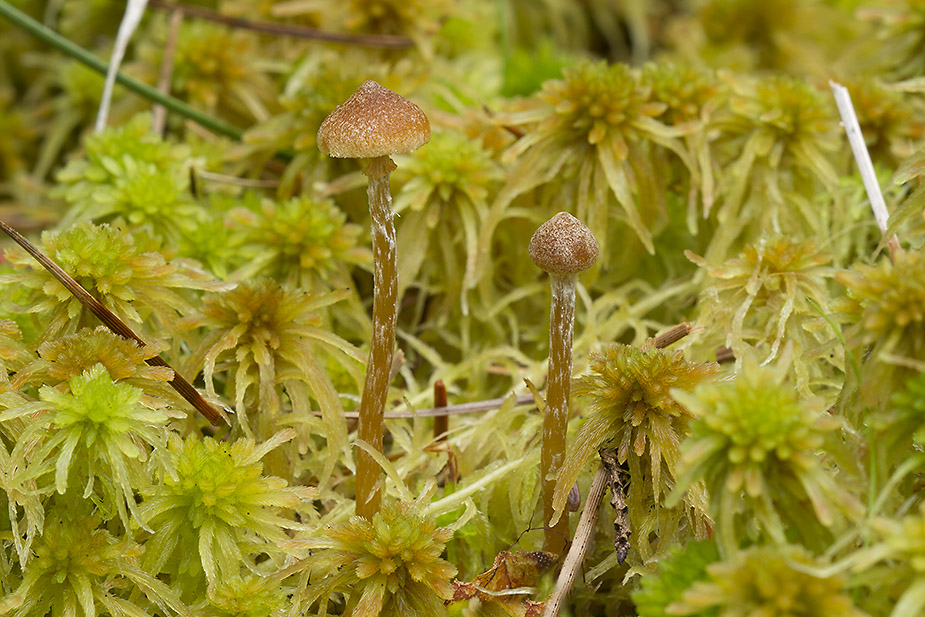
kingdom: Fungi
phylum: Basidiomycota
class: Agaricomycetes
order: Agaricales
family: Hymenogastraceae
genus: Galerina
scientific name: Galerina paludosa
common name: mose-hjelmhat
